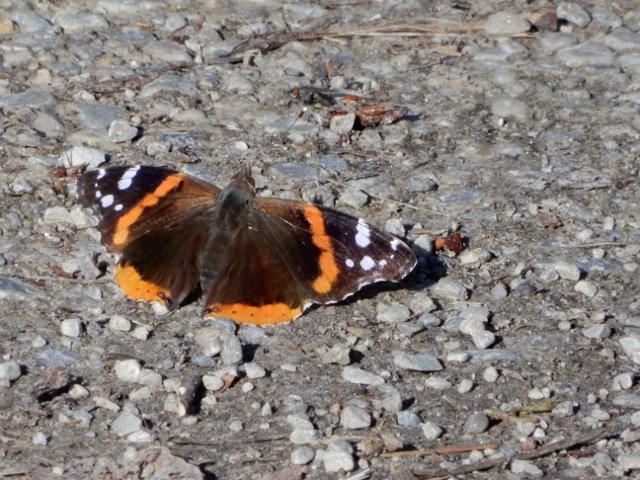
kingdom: Animalia
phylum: Arthropoda
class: Insecta
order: Lepidoptera
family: Nymphalidae
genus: Vanessa
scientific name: Vanessa atalanta
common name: Red Admiral
